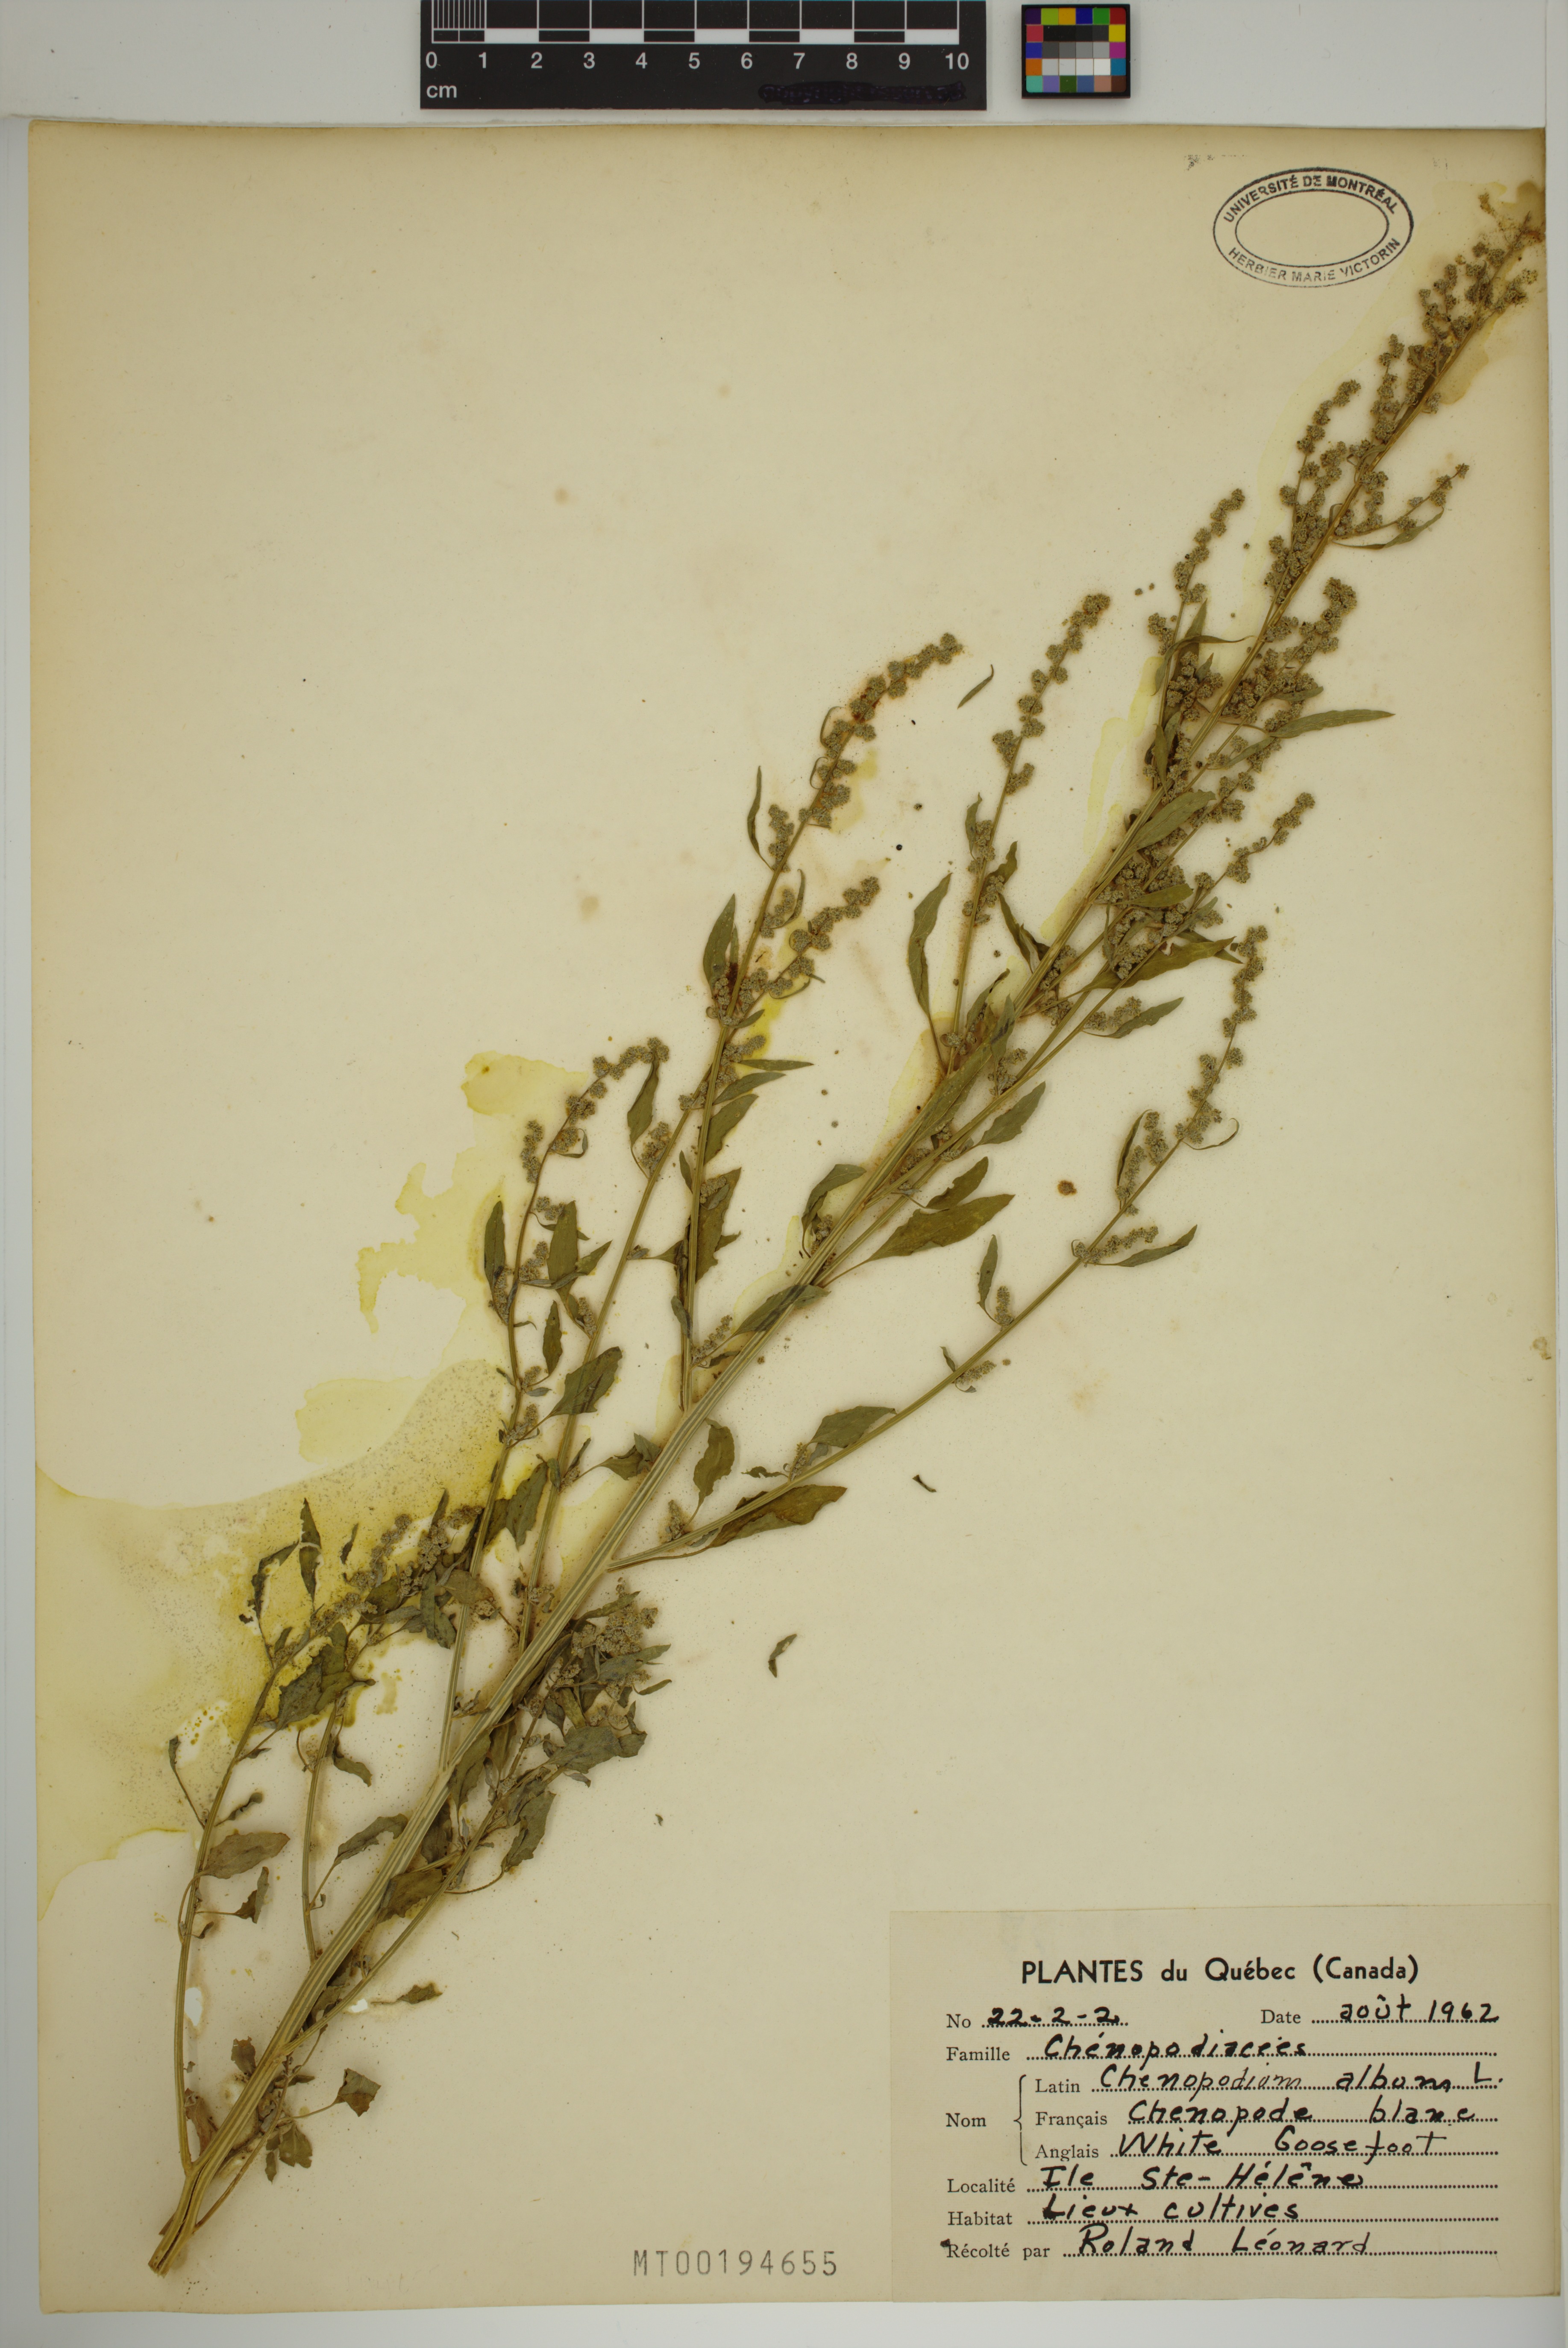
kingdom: Plantae
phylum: Tracheophyta
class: Magnoliopsida
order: Caryophyllales
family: Amaranthaceae
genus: Chenopodium
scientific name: Chenopodium album
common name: Fat-hen
